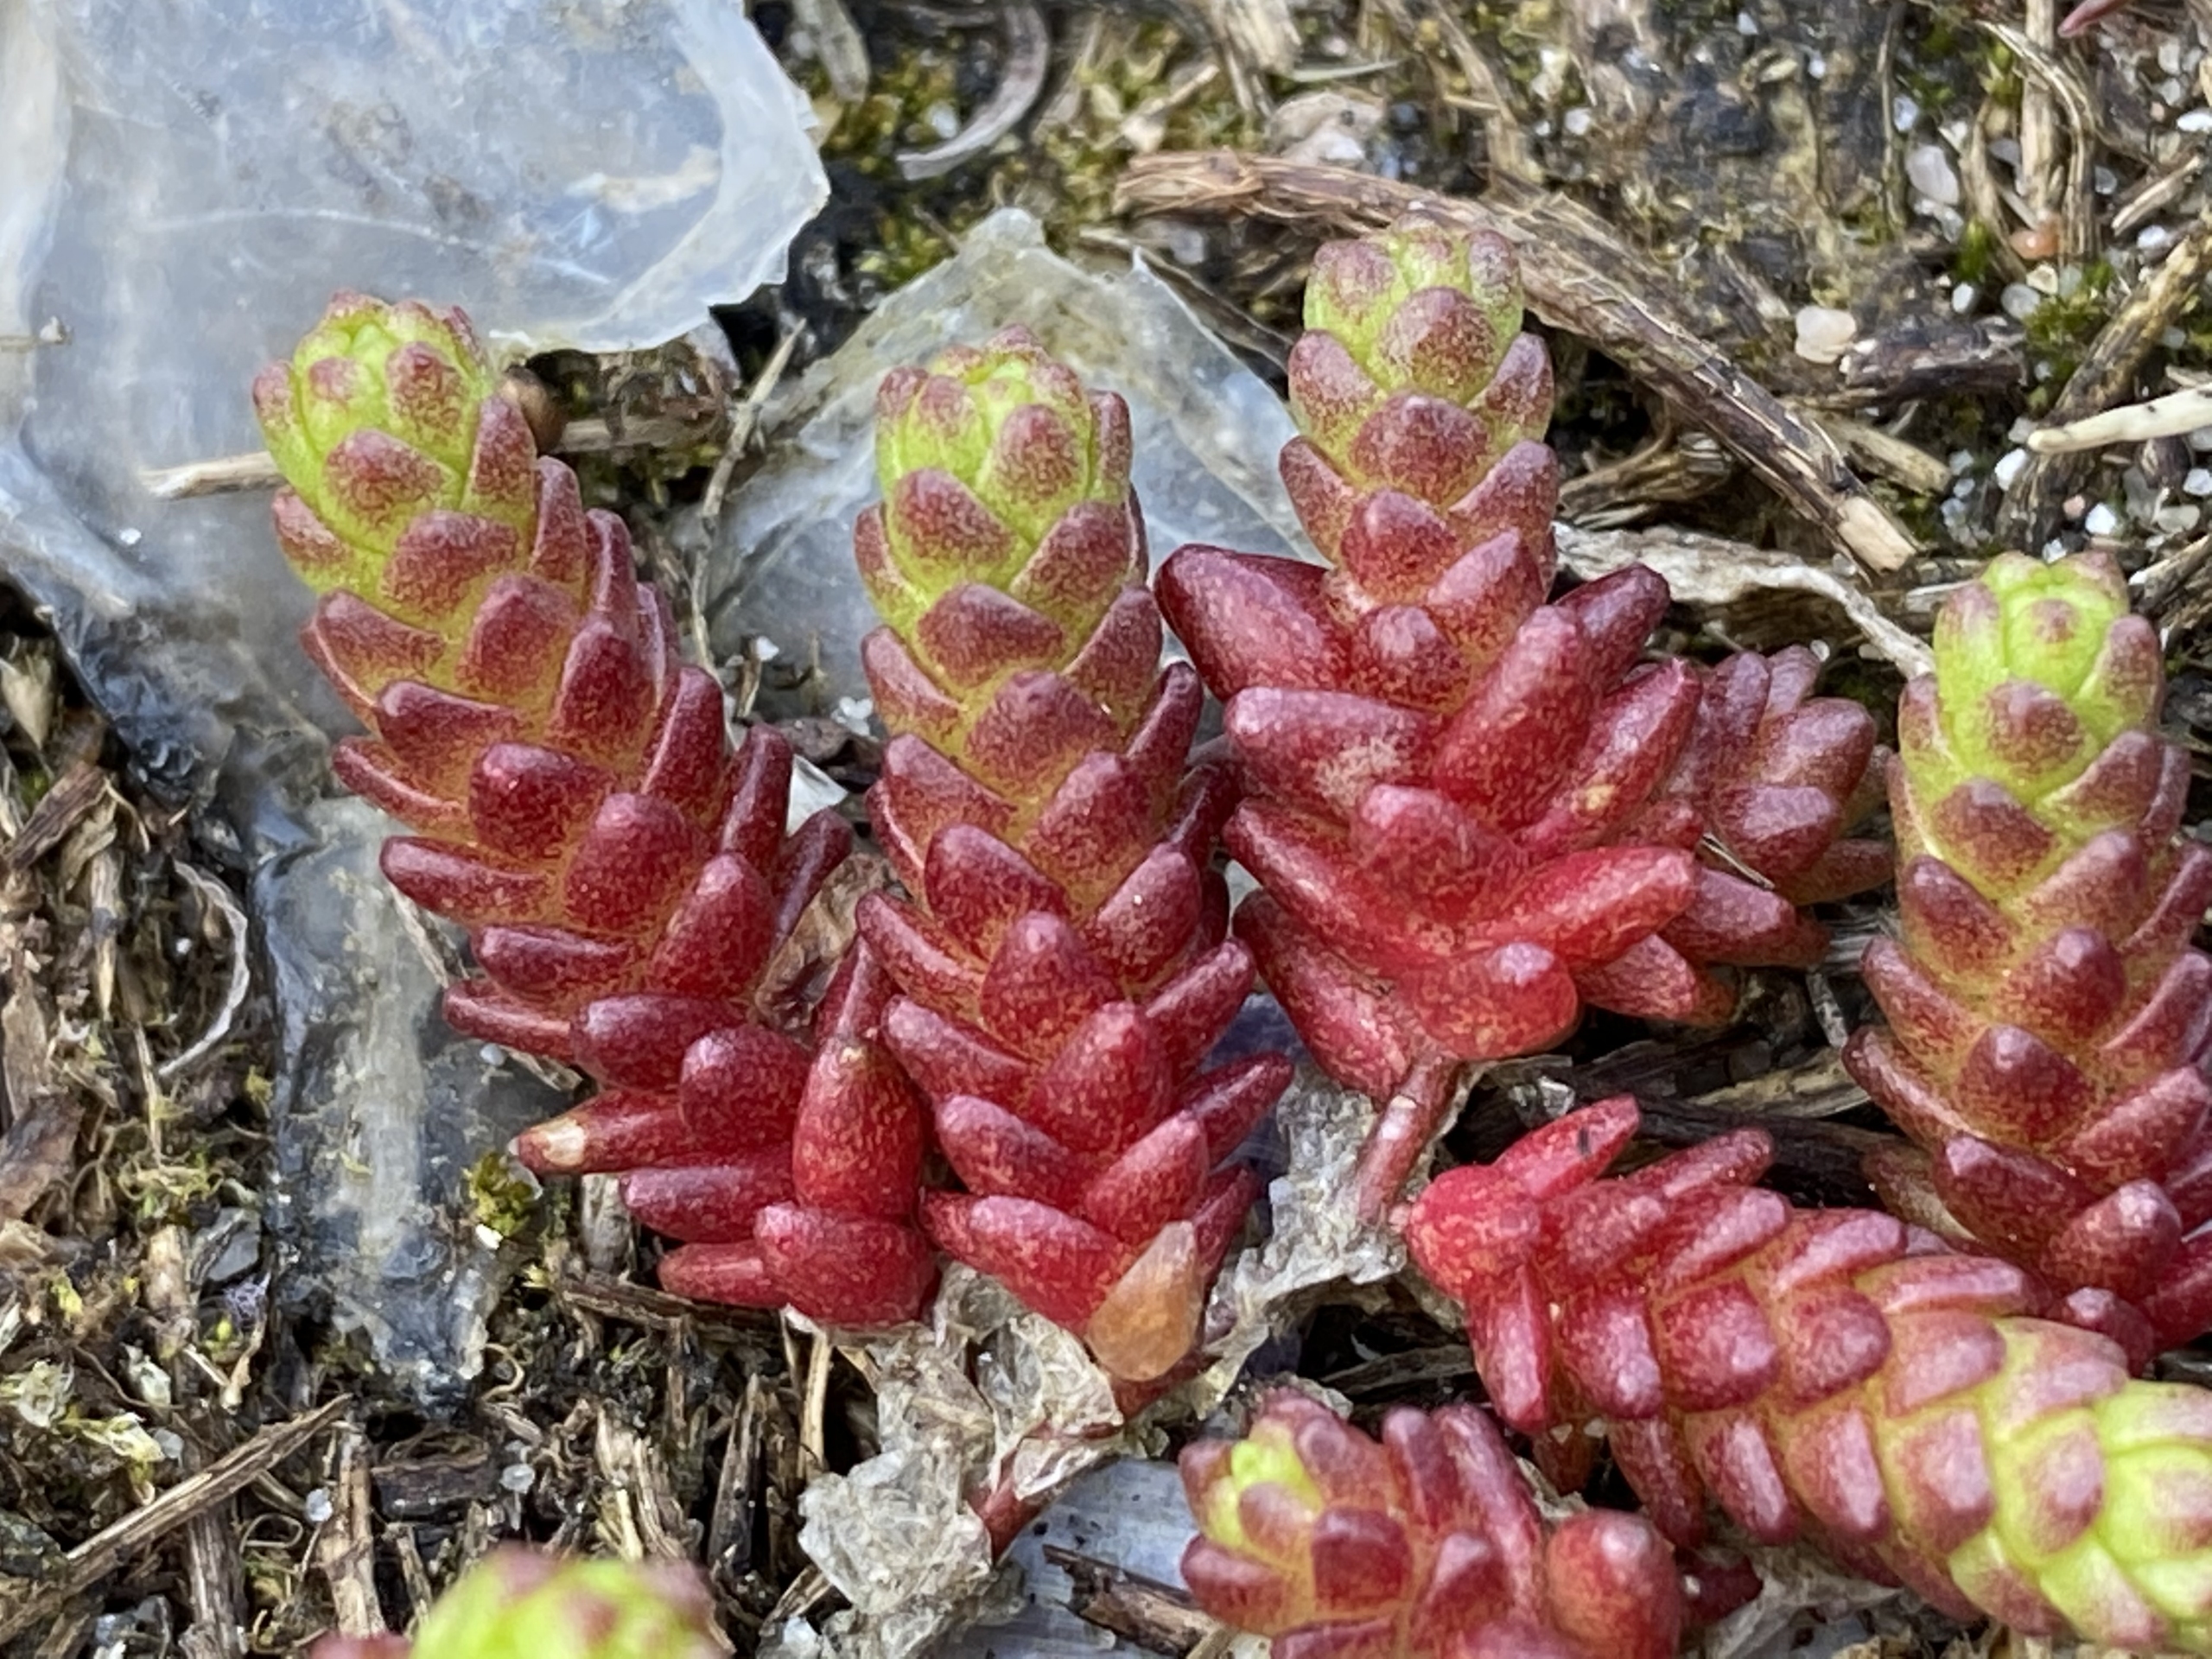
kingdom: Plantae
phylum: Tracheophyta
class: Magnoliopsida
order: Saxifragales
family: Crassulaceae
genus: Sedum
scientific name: Sedum acre
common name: Bidende stenurt
